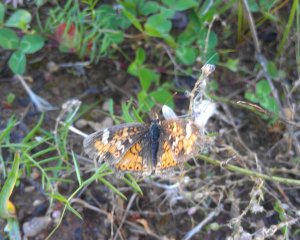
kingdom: Animalia
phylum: Arthropoda
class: Insecta
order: Lepidoptera
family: Nymphalidae
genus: Phyciodes
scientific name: Phyciodes tharos
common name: Northern Crescent
